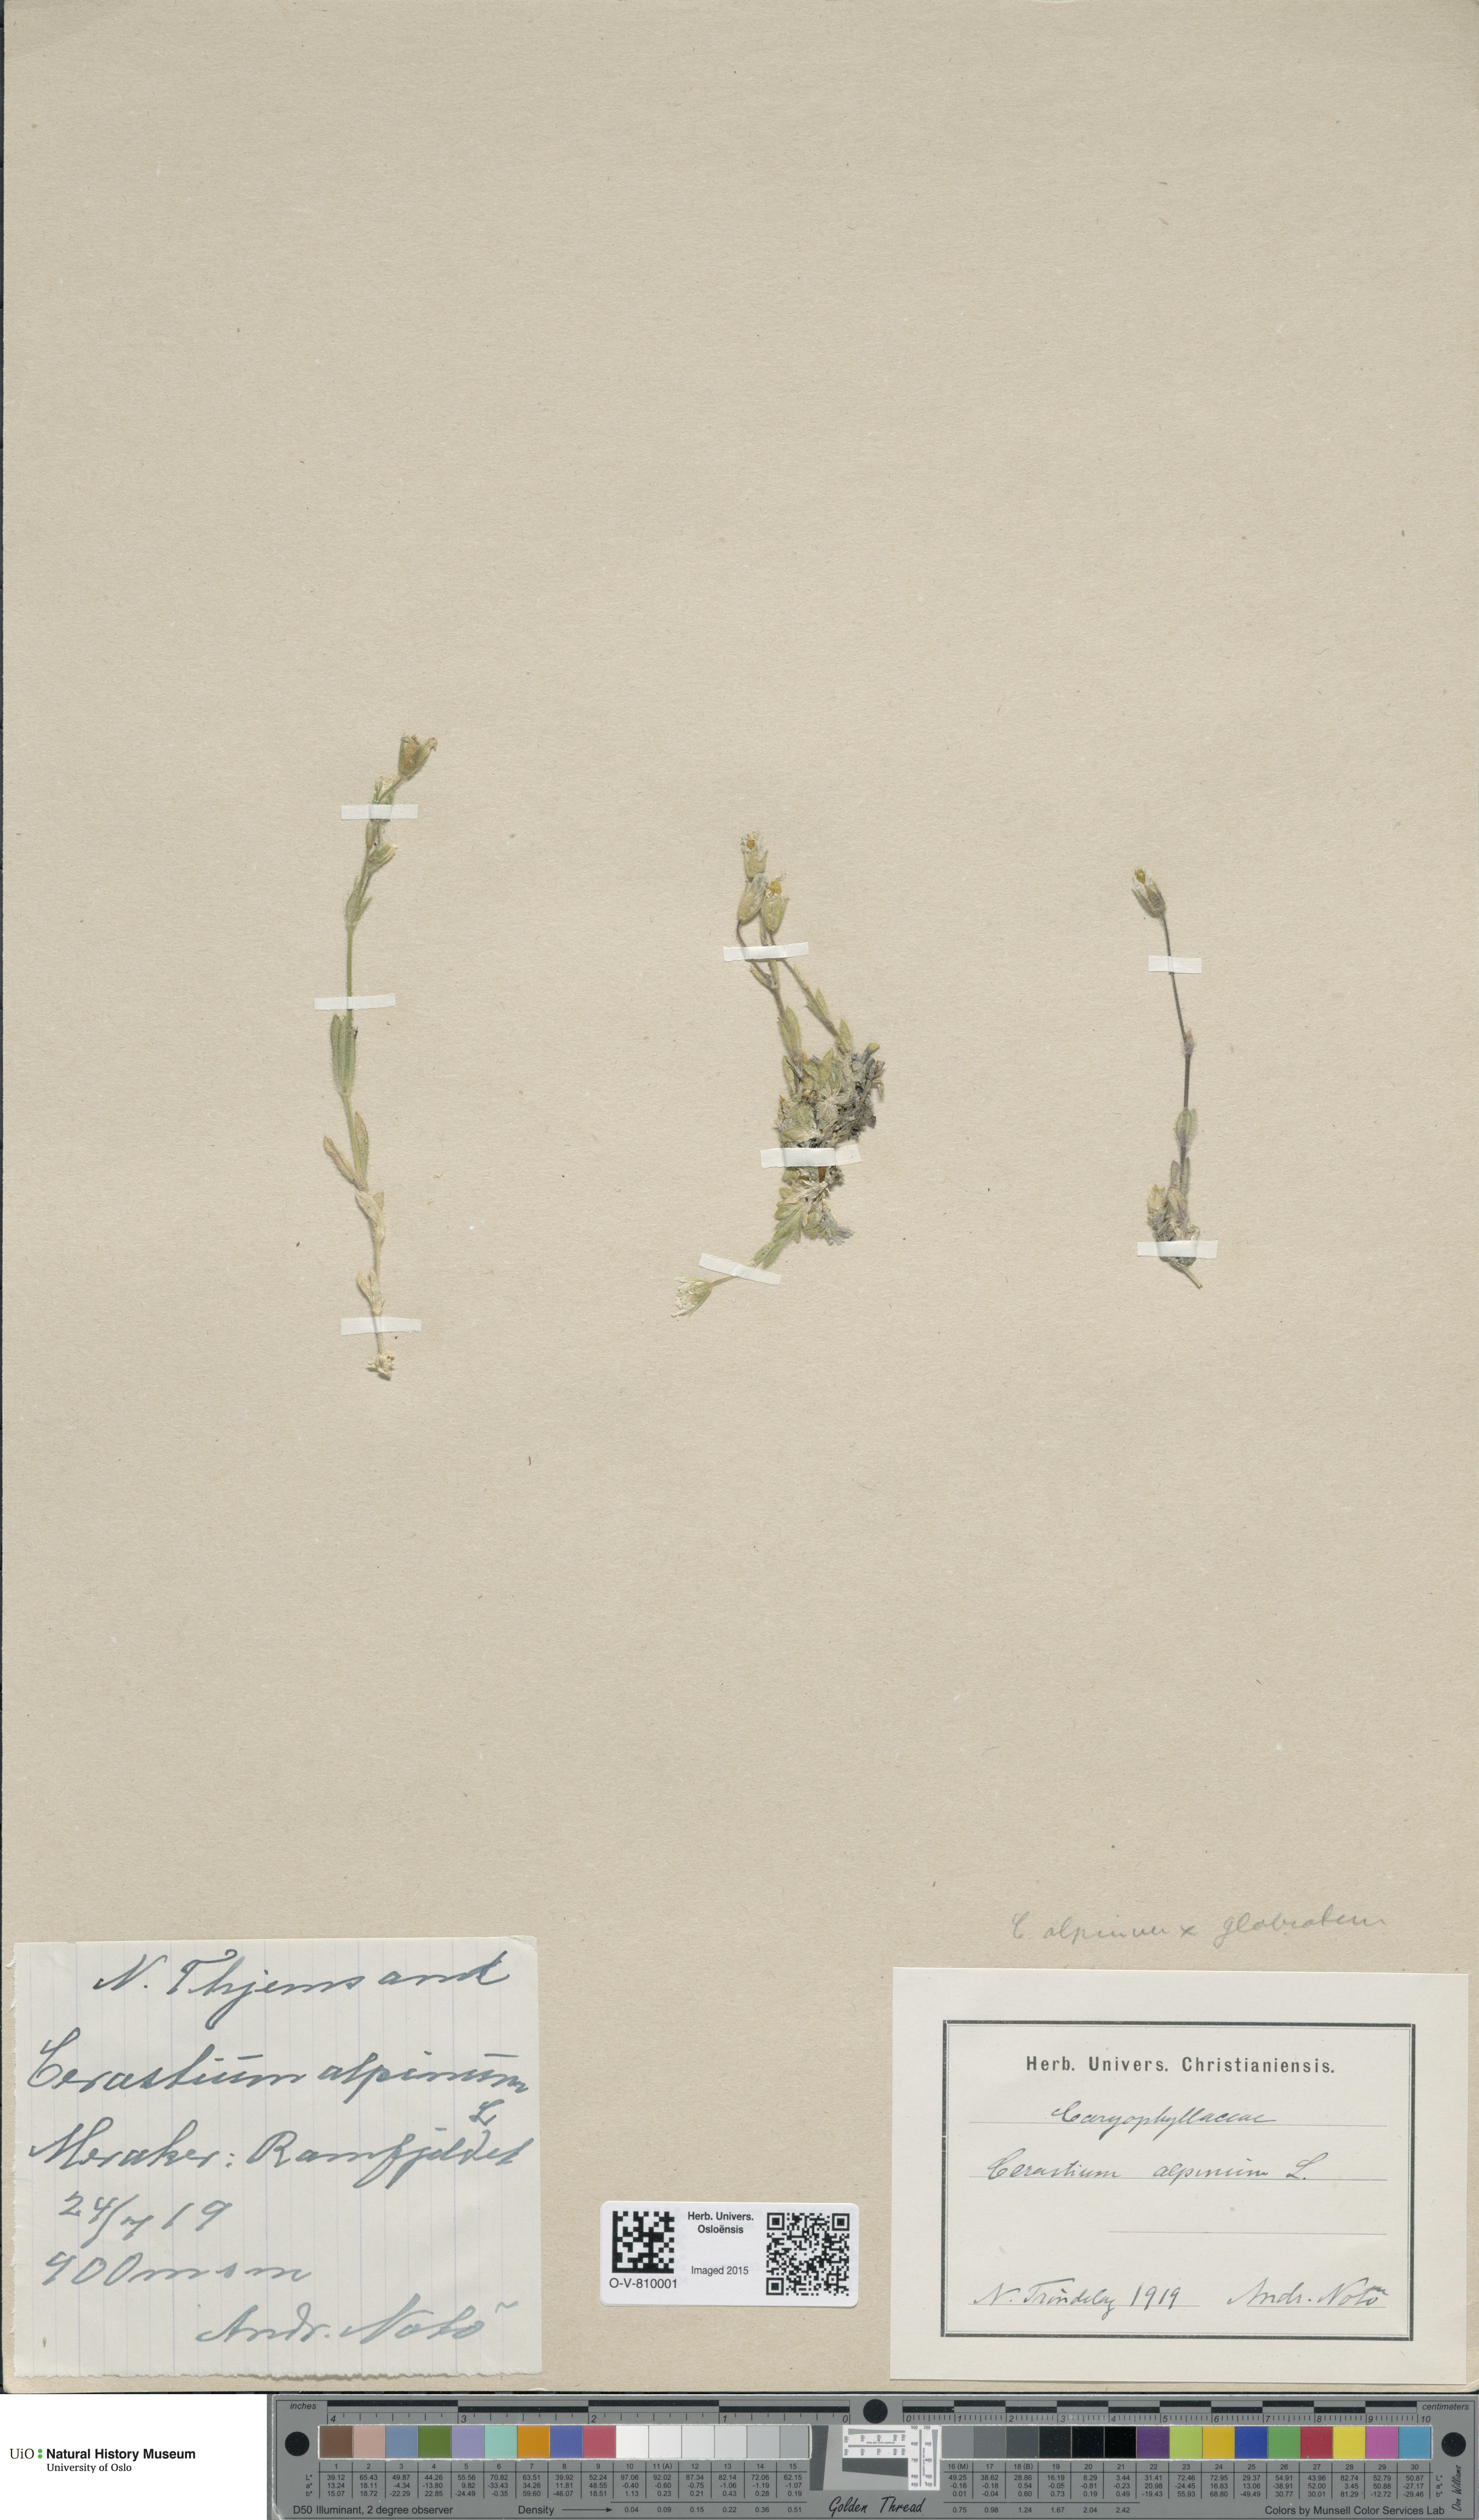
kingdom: Plantae
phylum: Tracheophyta
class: Magnoliopsida
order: Caryophyllales
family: Caryophyllaceae
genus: Cerastium
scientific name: Cerastium
